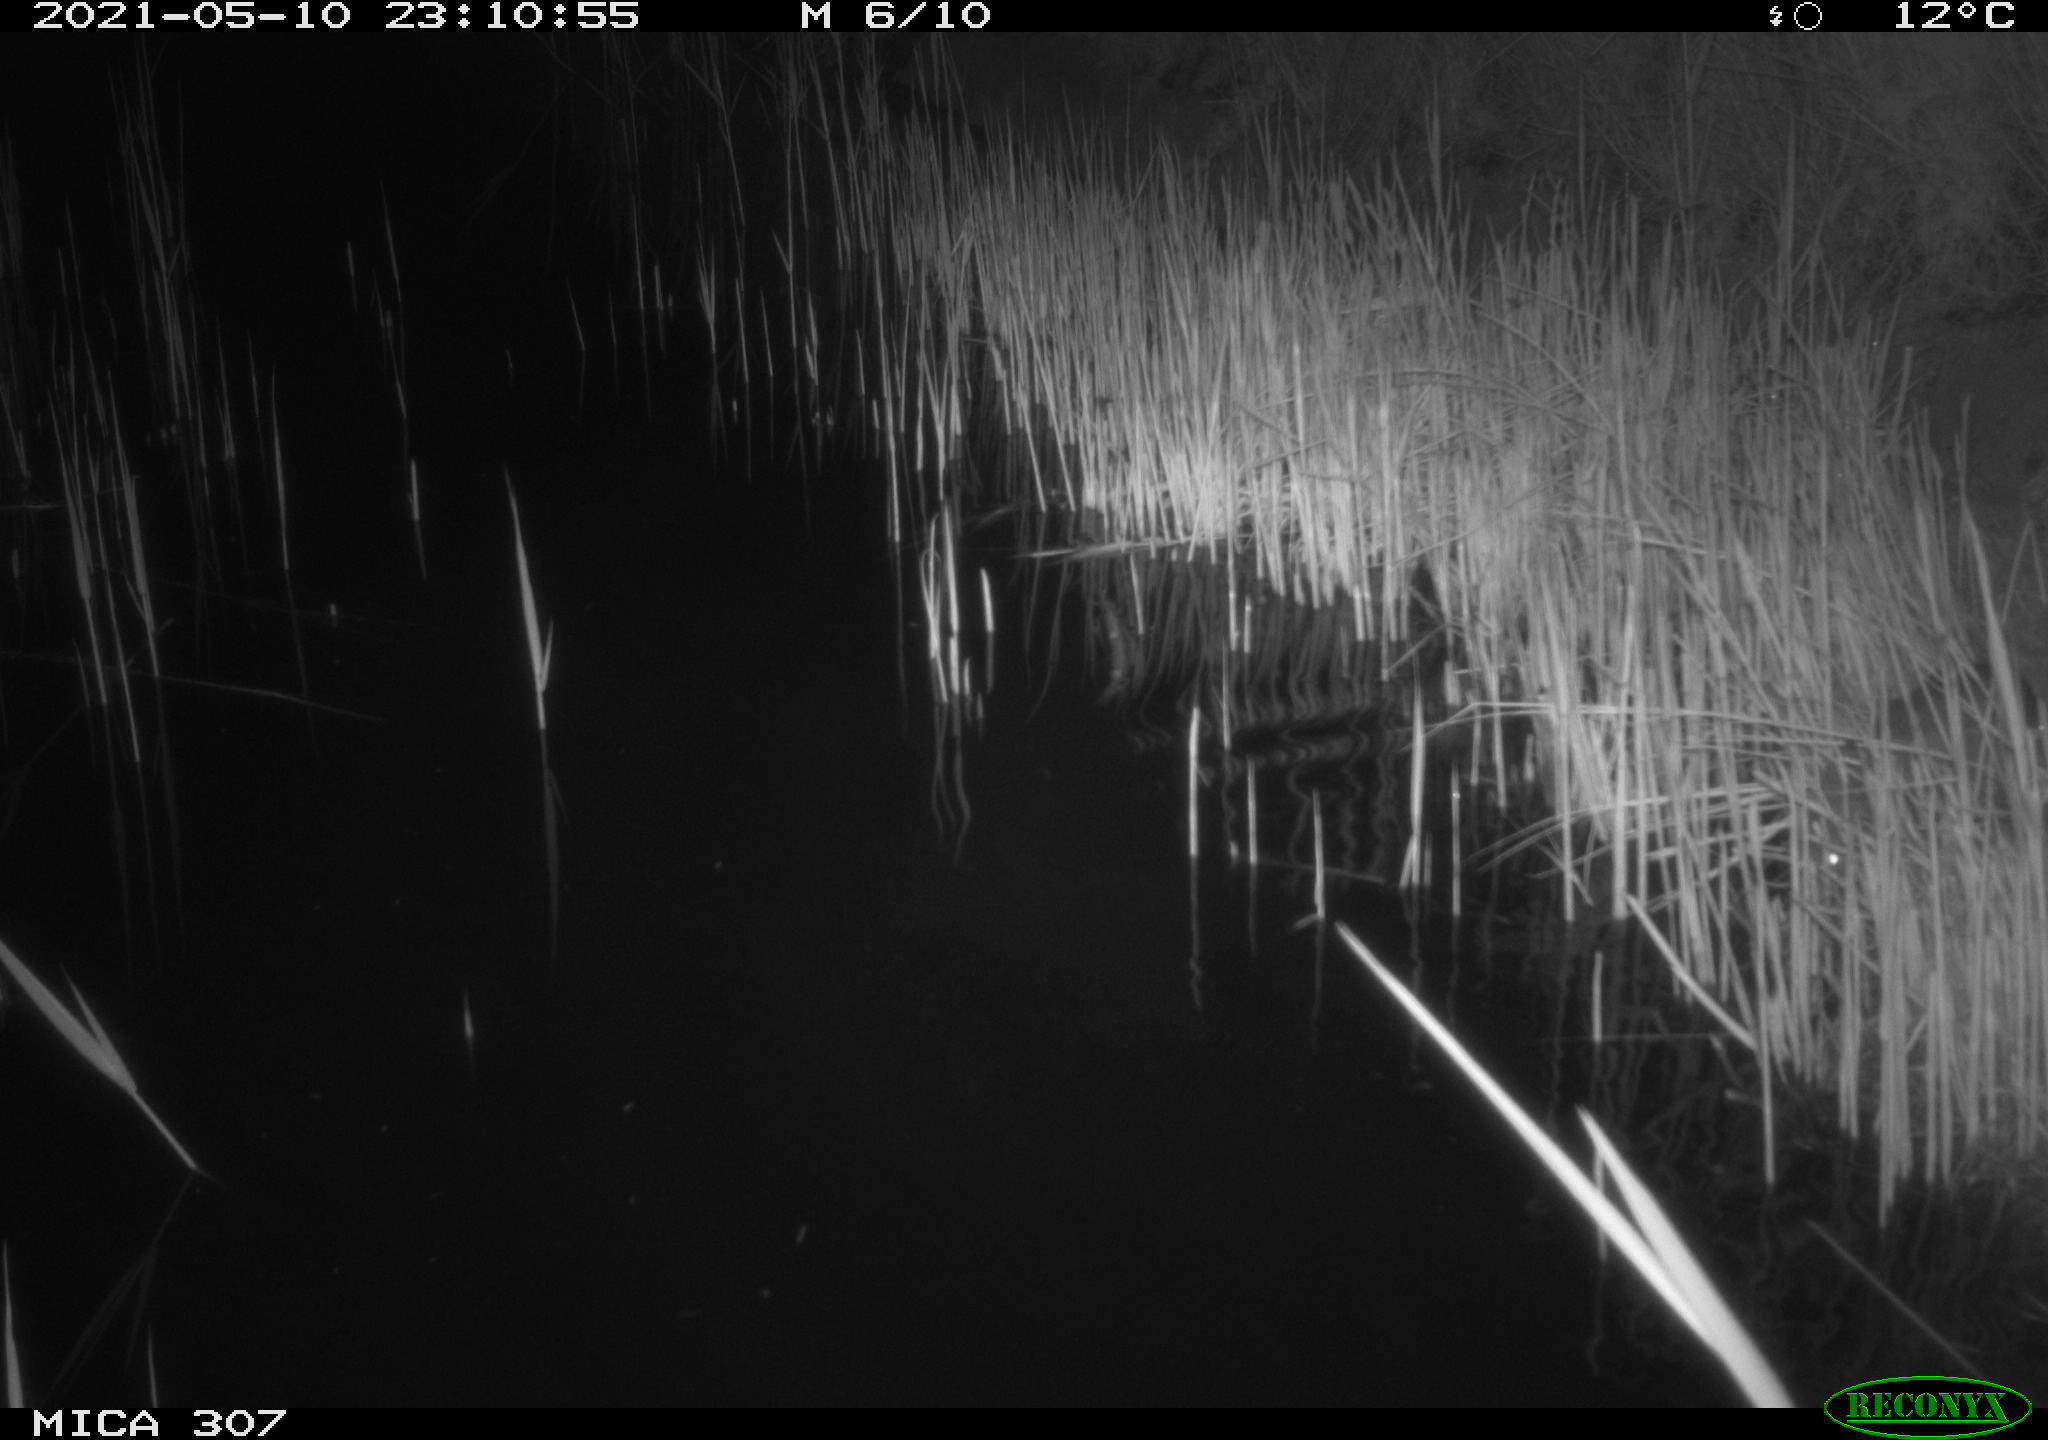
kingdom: Animalia
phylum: Chordata
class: Mammalia
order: Rodentia
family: Muridae
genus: Rattus
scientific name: Rattus norvegicus
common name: Brown rat
